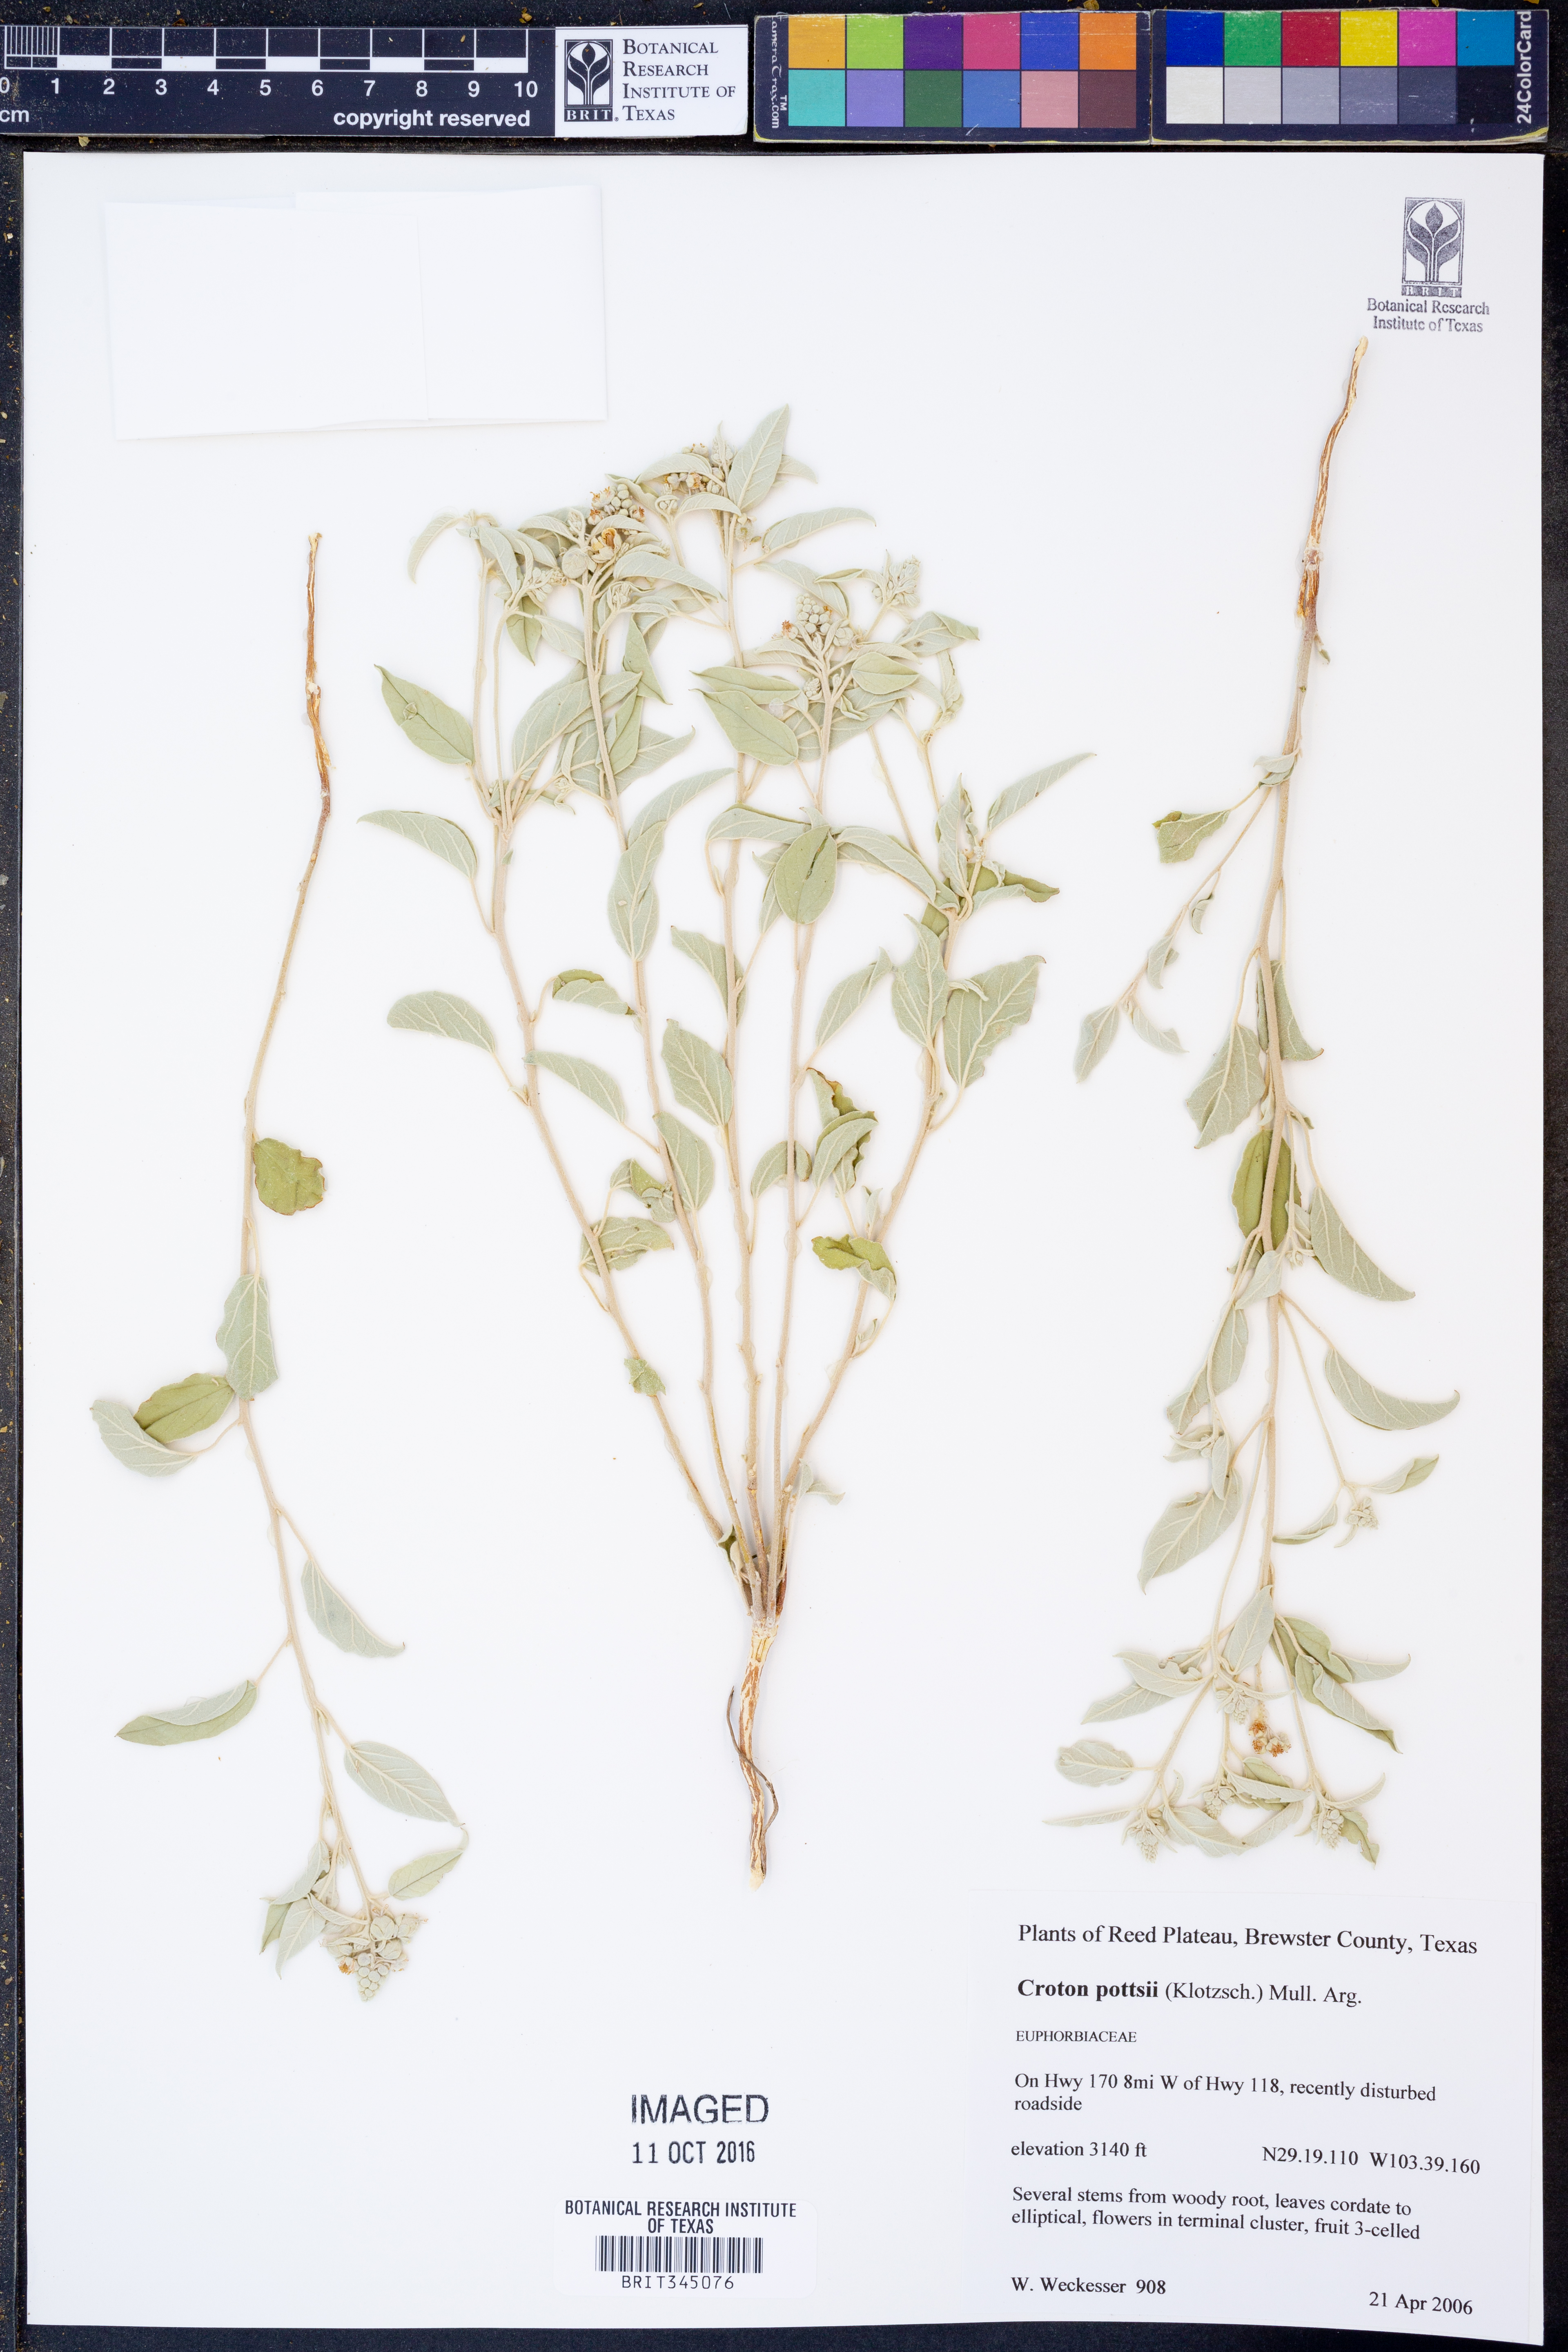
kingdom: Plantae
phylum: Tracheophyta
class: Magnoliopsida
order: Malpighiales
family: Euphorbiaceae
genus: Croton
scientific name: Croton pottsii
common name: Leatherweed
